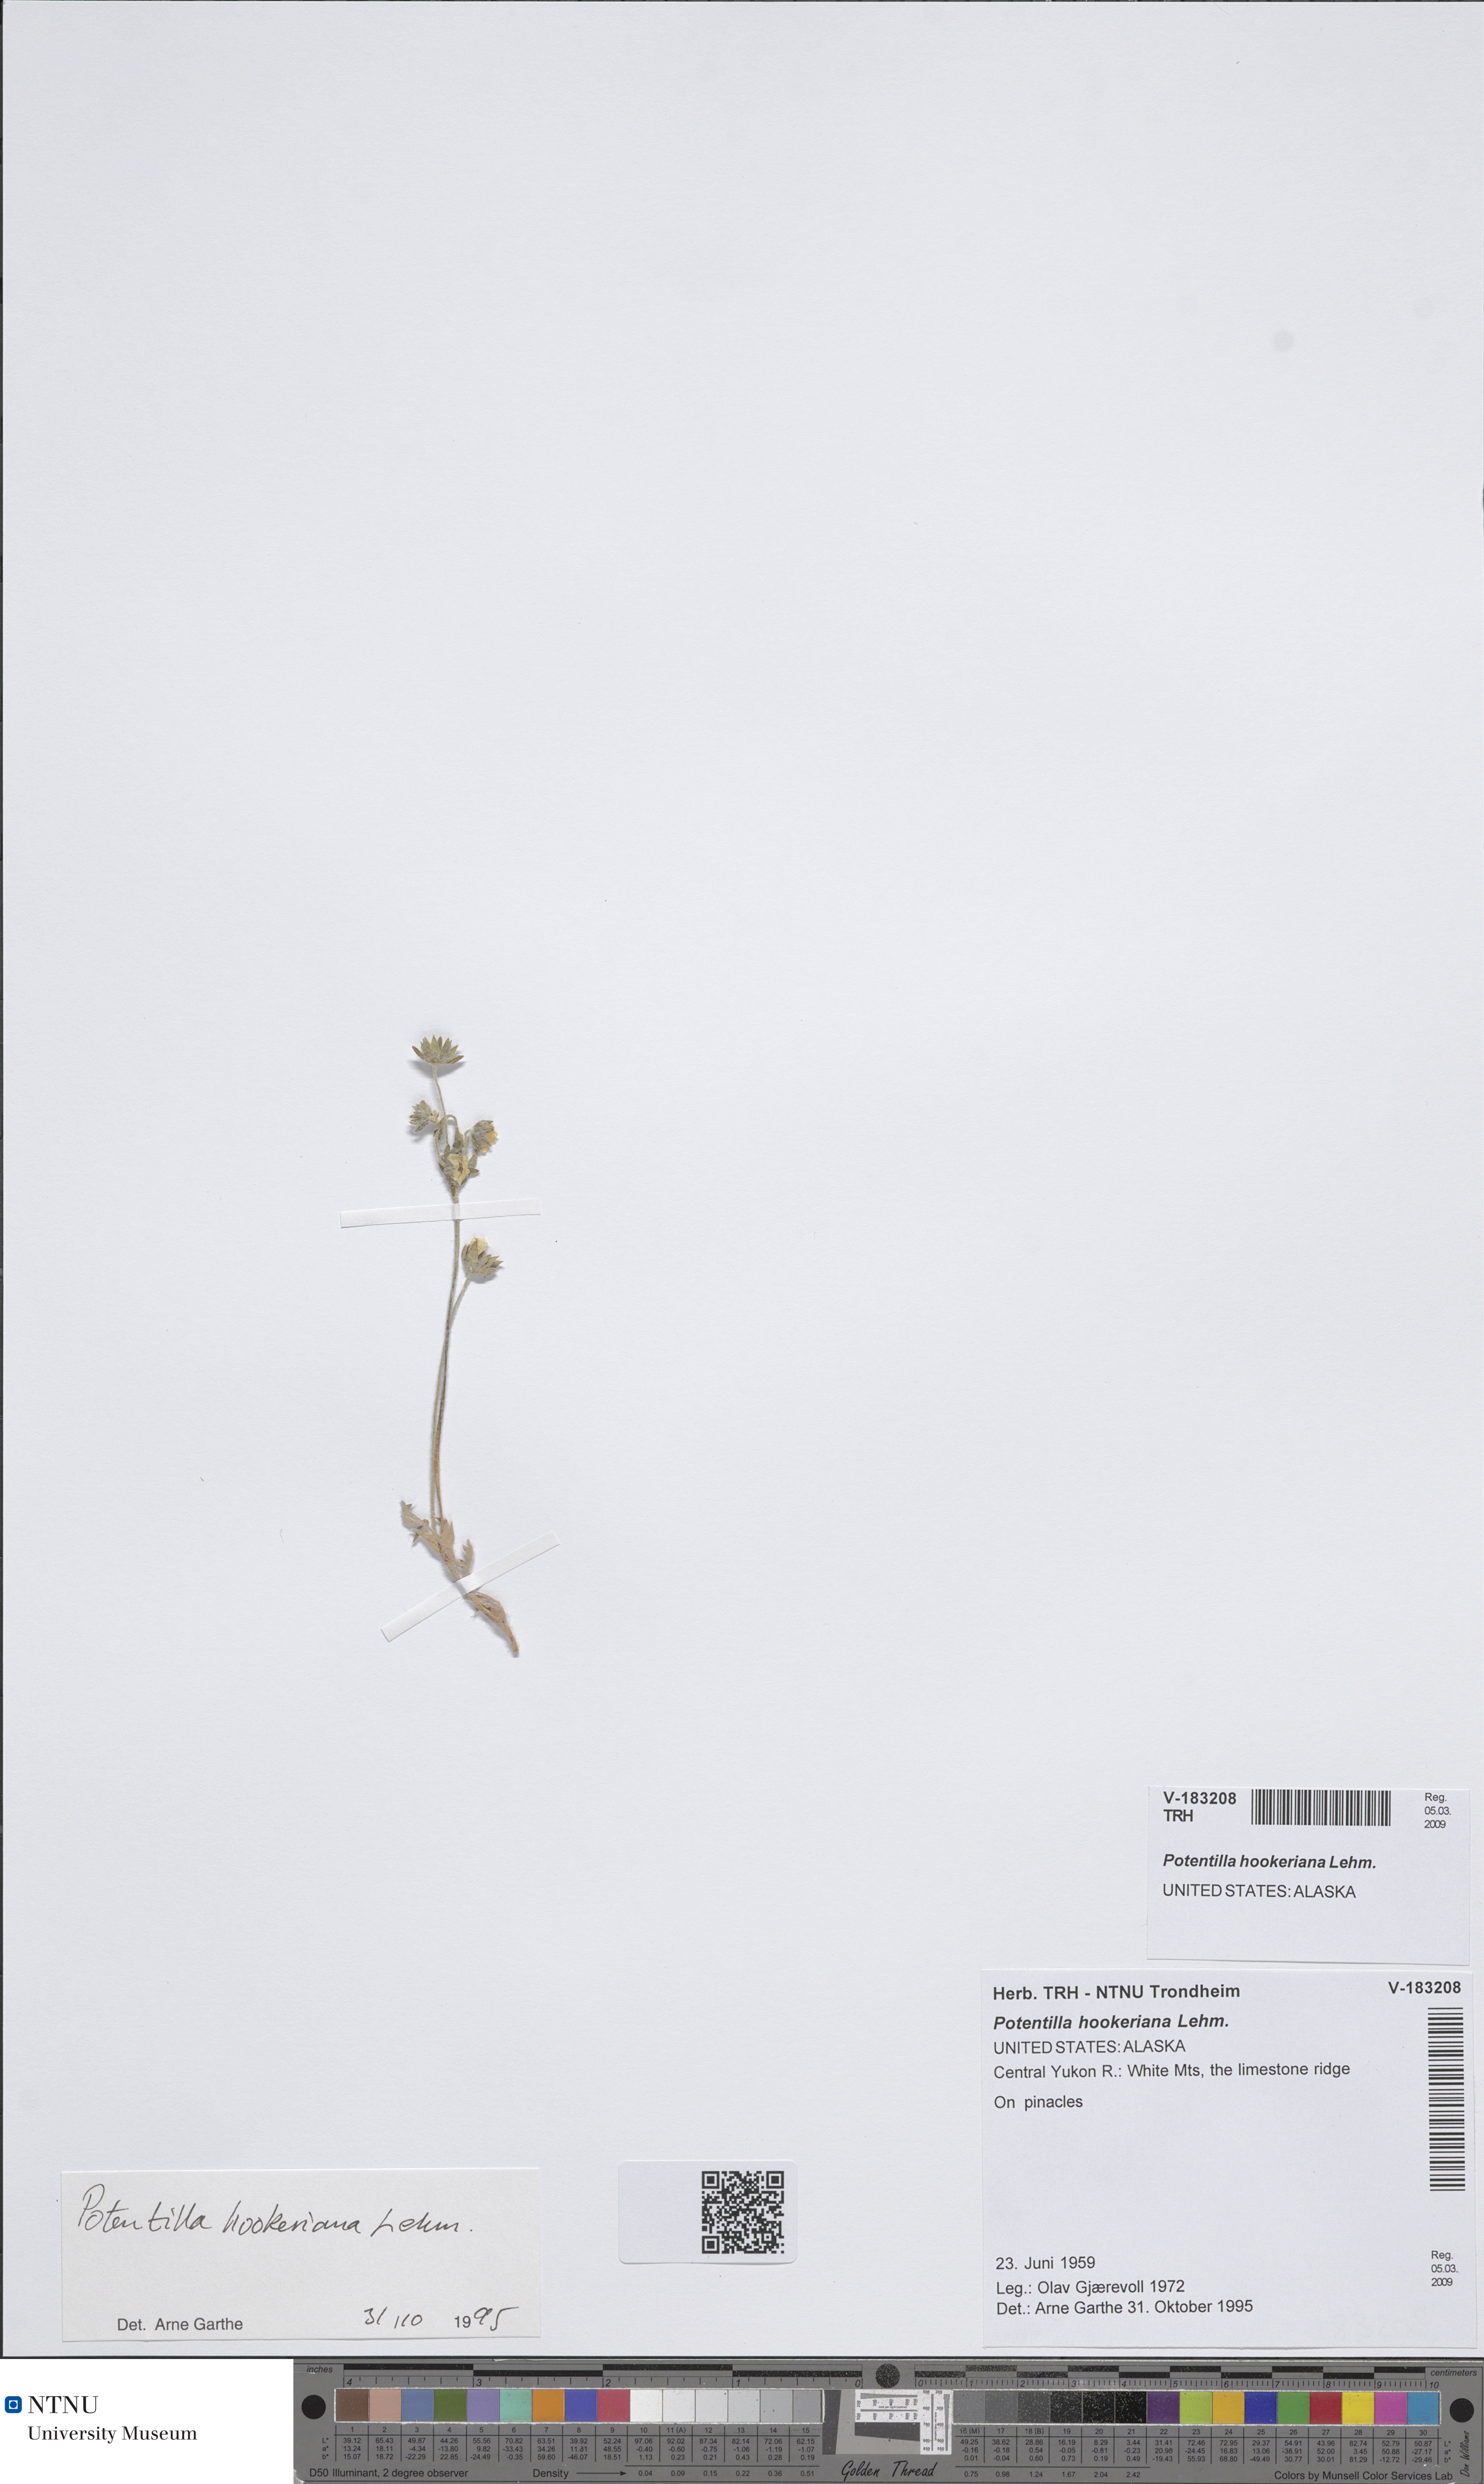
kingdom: Plantae
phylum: Tracheophyta
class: Magnoliopsida
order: Rosales
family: Rosaceae
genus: Potentilla
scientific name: Potentilla hookeriana
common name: Hooker's cinquefoil
